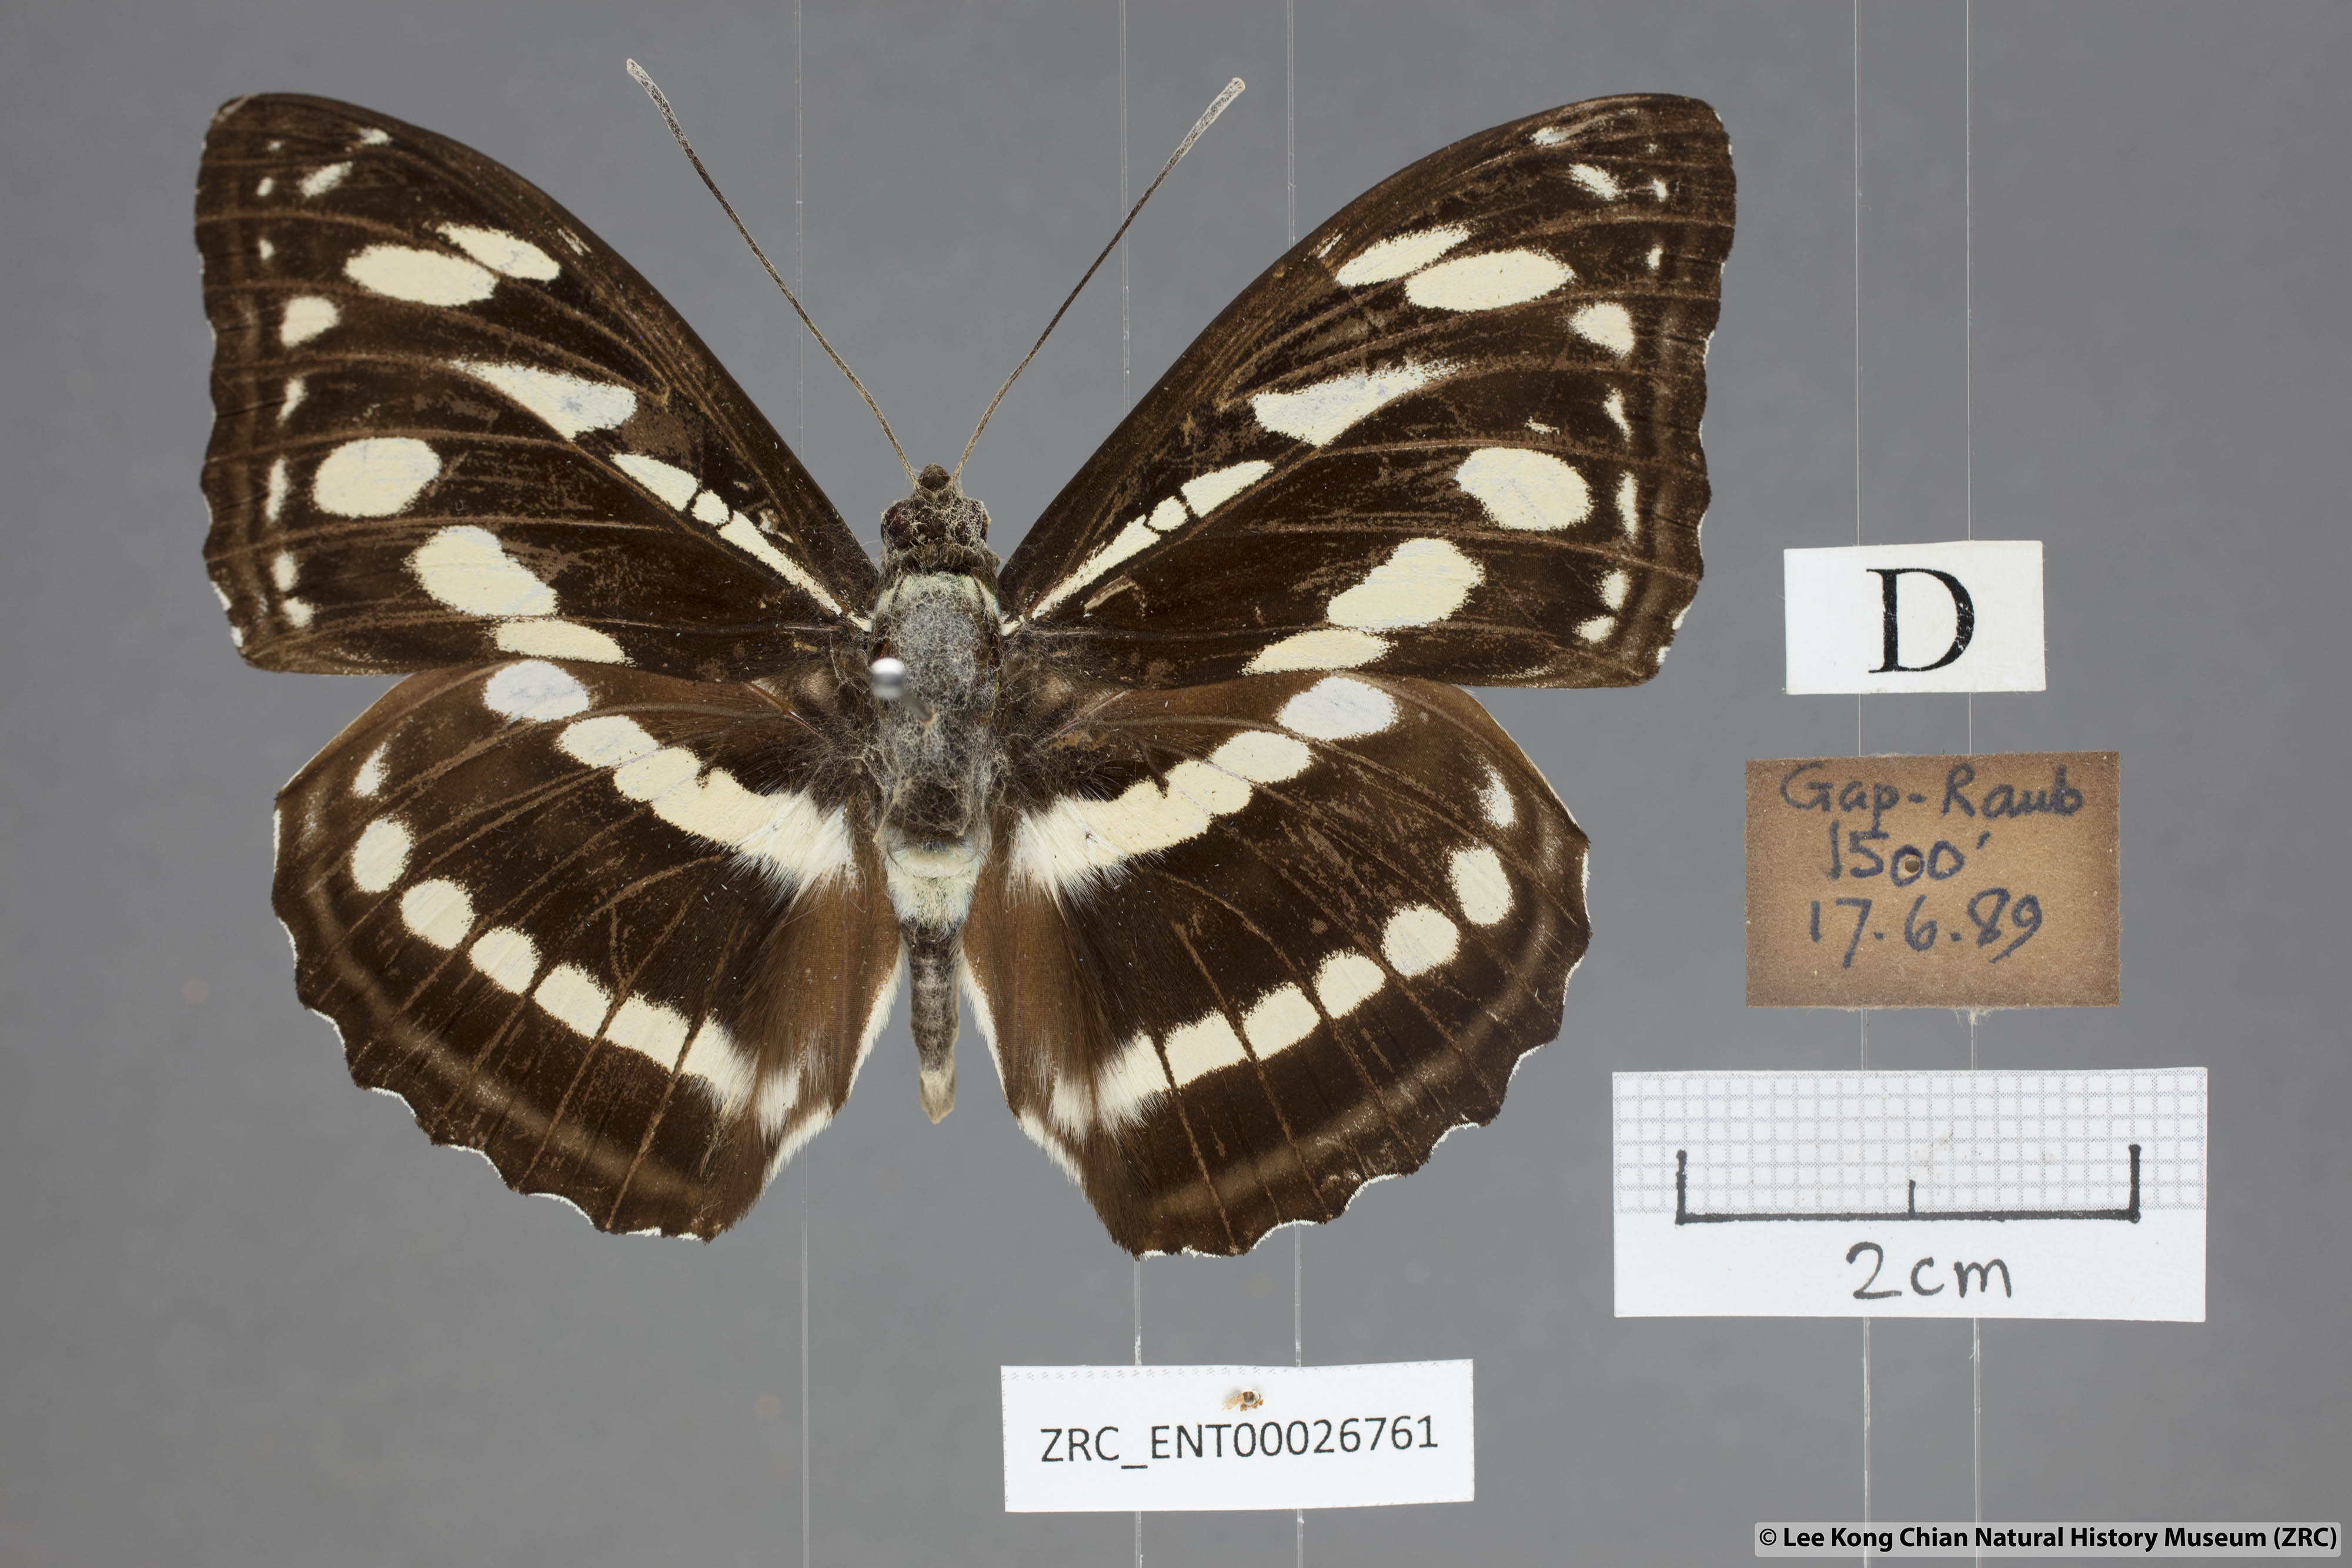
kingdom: Animalia
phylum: Arthropoda
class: Insecta
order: Lepidoptera
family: Nymphalidae
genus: Pantoporia
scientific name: Pantoporia larymna
